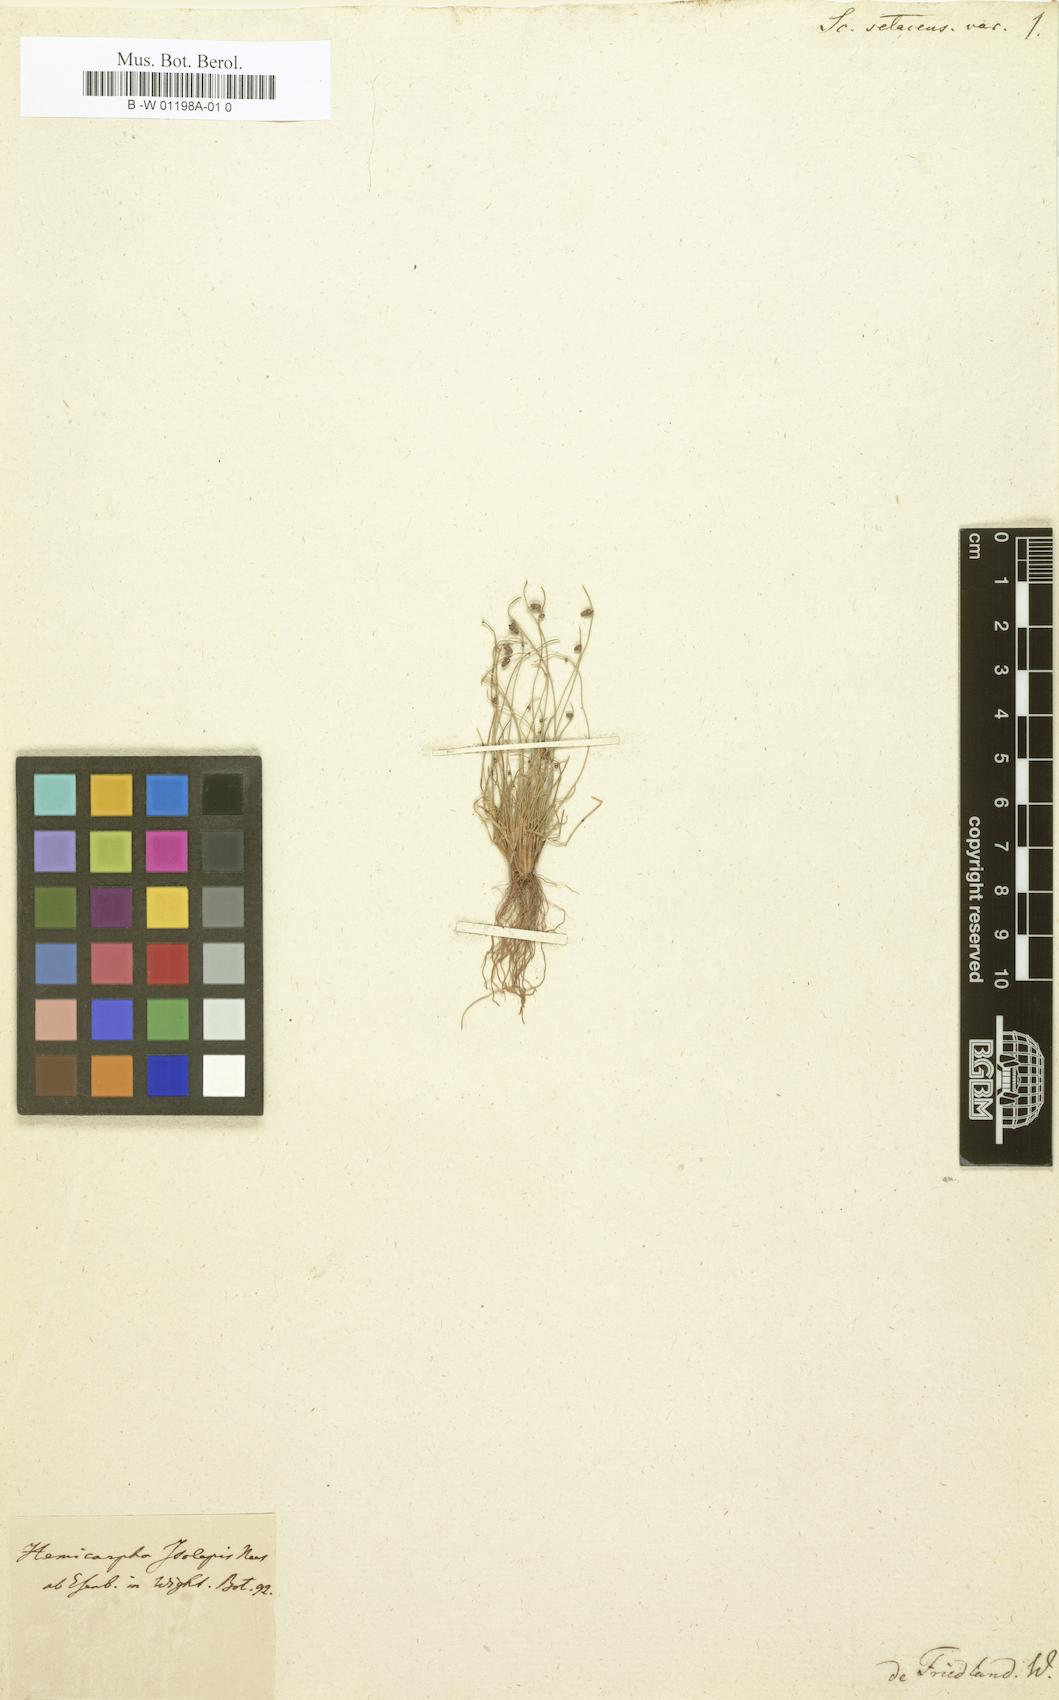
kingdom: Plantae
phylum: Tracheophyta
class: Liliopsida
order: Poales
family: Cyperaceae
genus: Cyperus
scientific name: Cyperus isolepis
